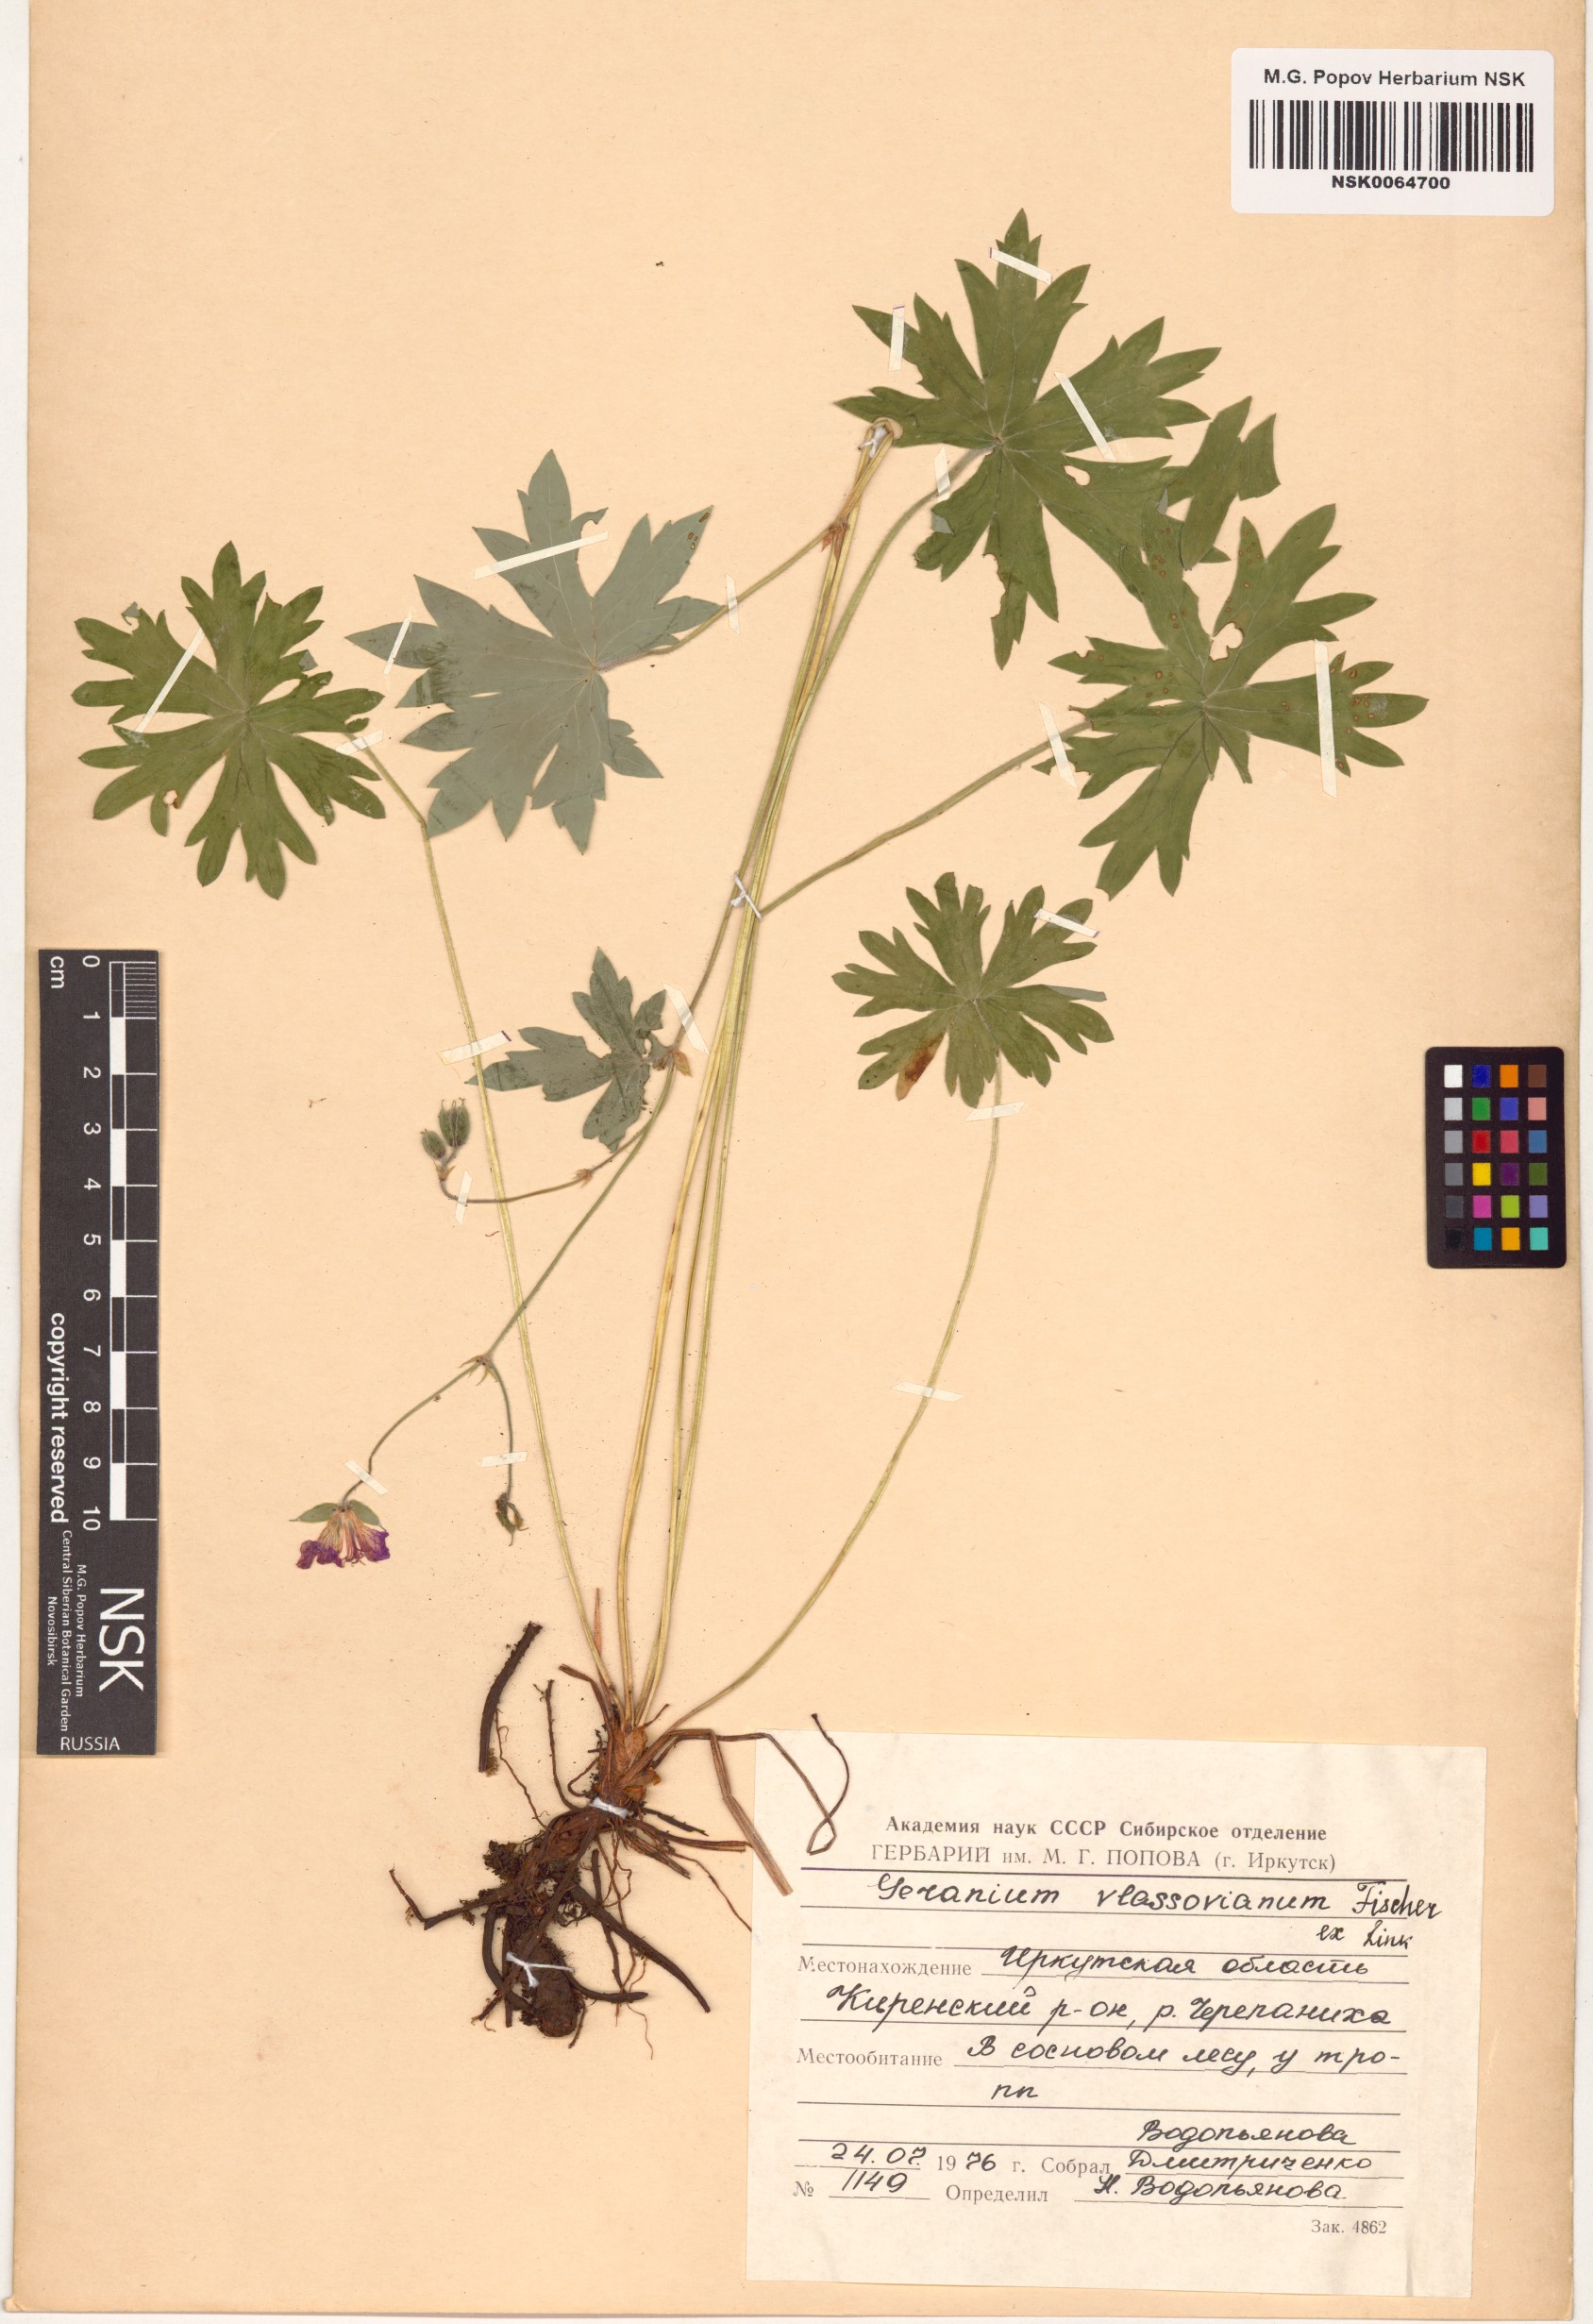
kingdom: Plantae
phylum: Tracheophyta
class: Magnoliopsida
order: Geraniales
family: Geraniaceae
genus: Geranium
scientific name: Geranium wlassovianum
